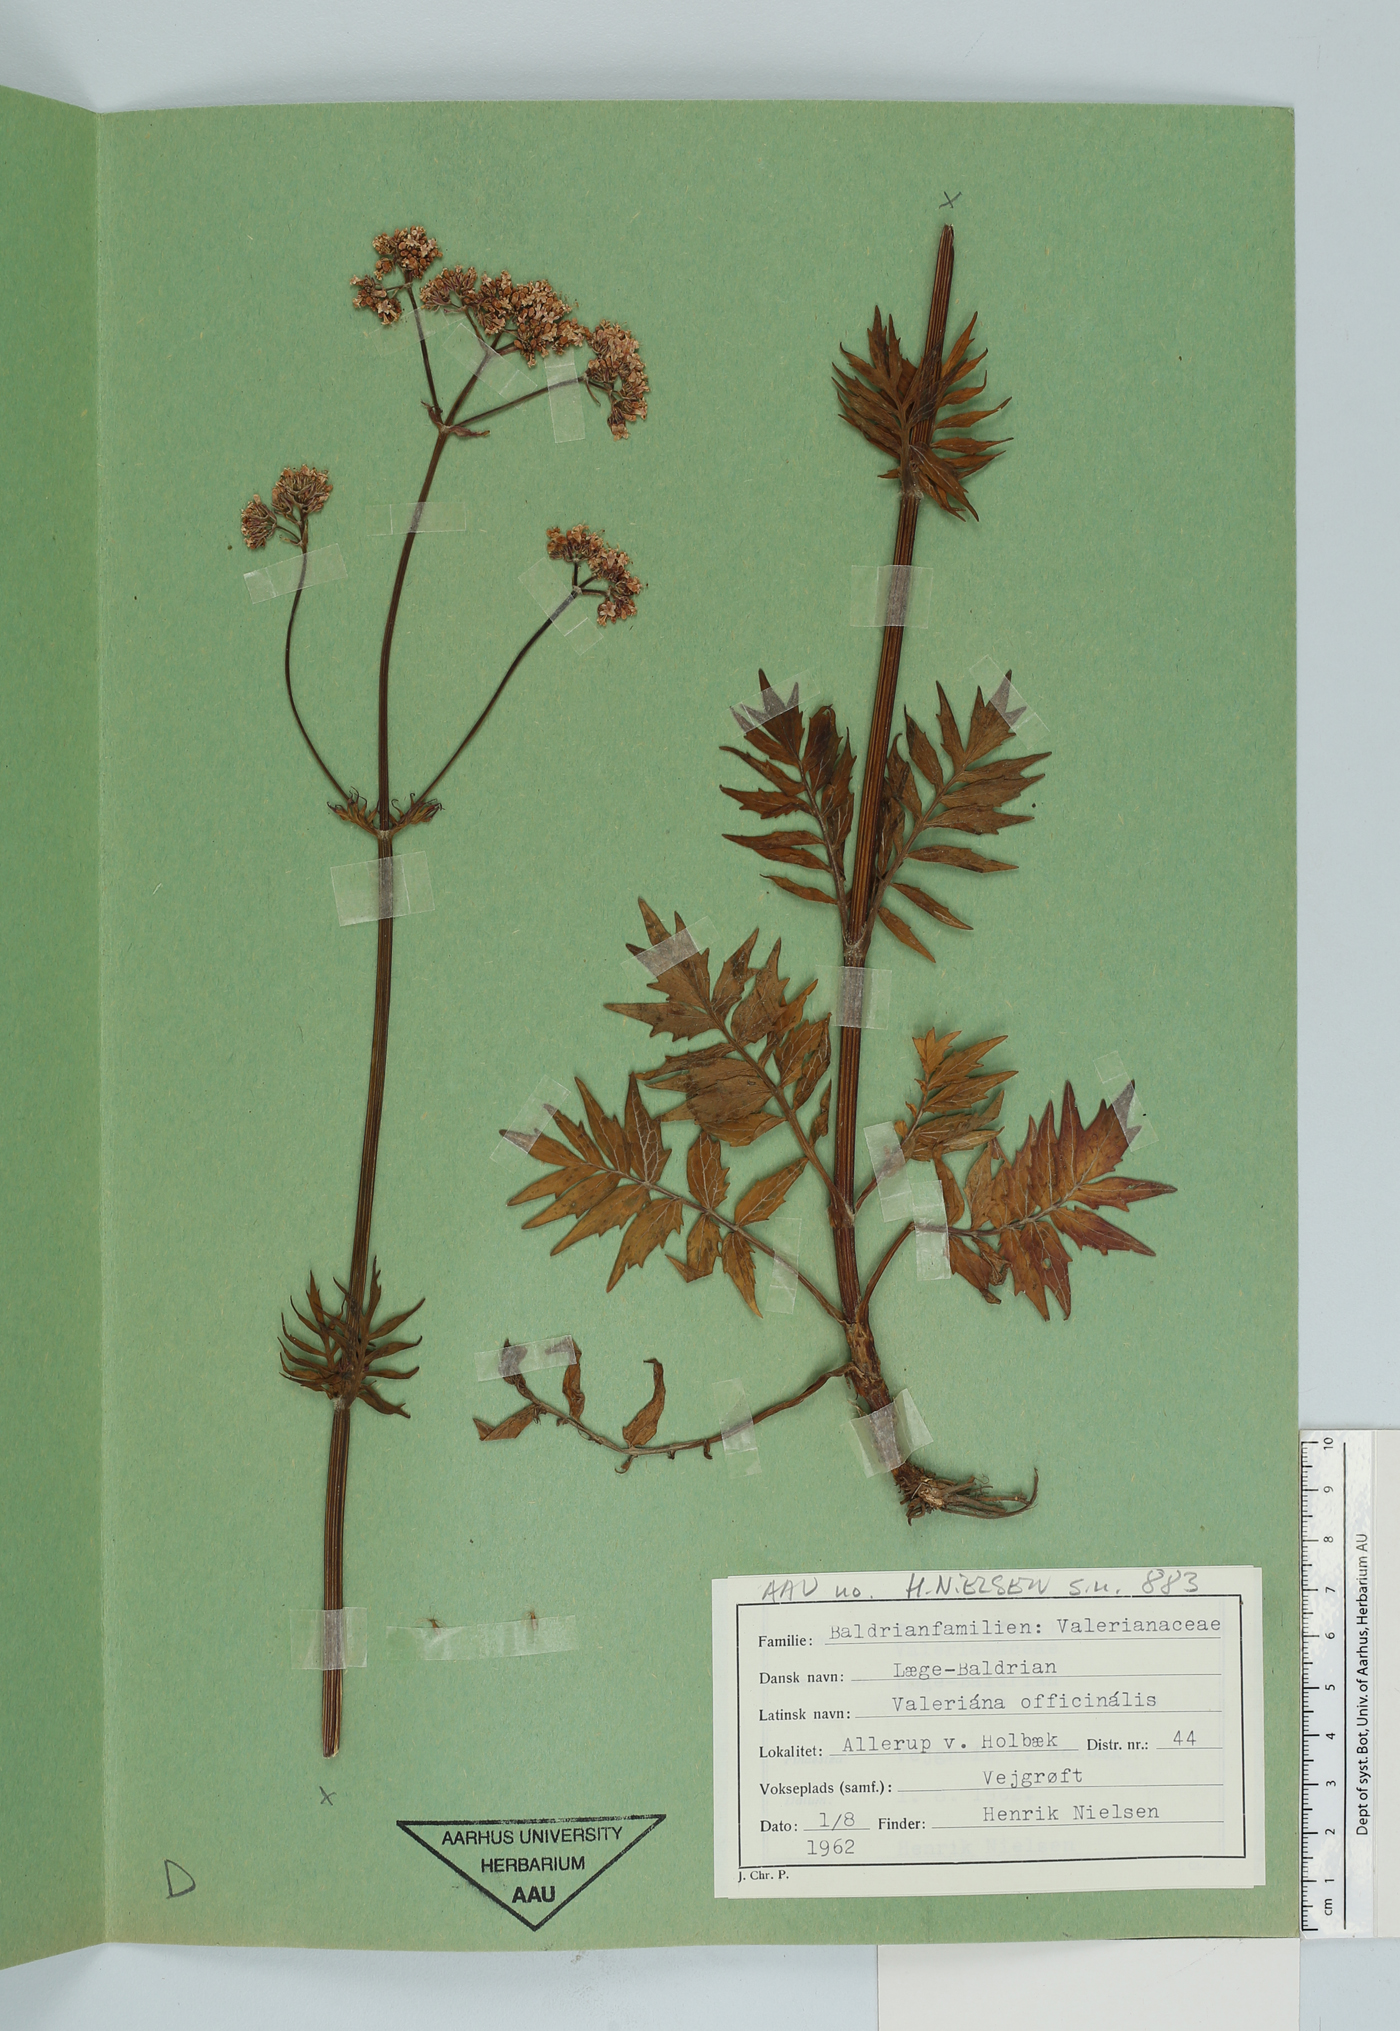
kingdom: Plantae
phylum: Tracheophyta
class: Magnoliopsida
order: Dipsacales
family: Caprifoliaceae
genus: Valeriana
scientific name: Valeriana officinalis
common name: Common valerian
